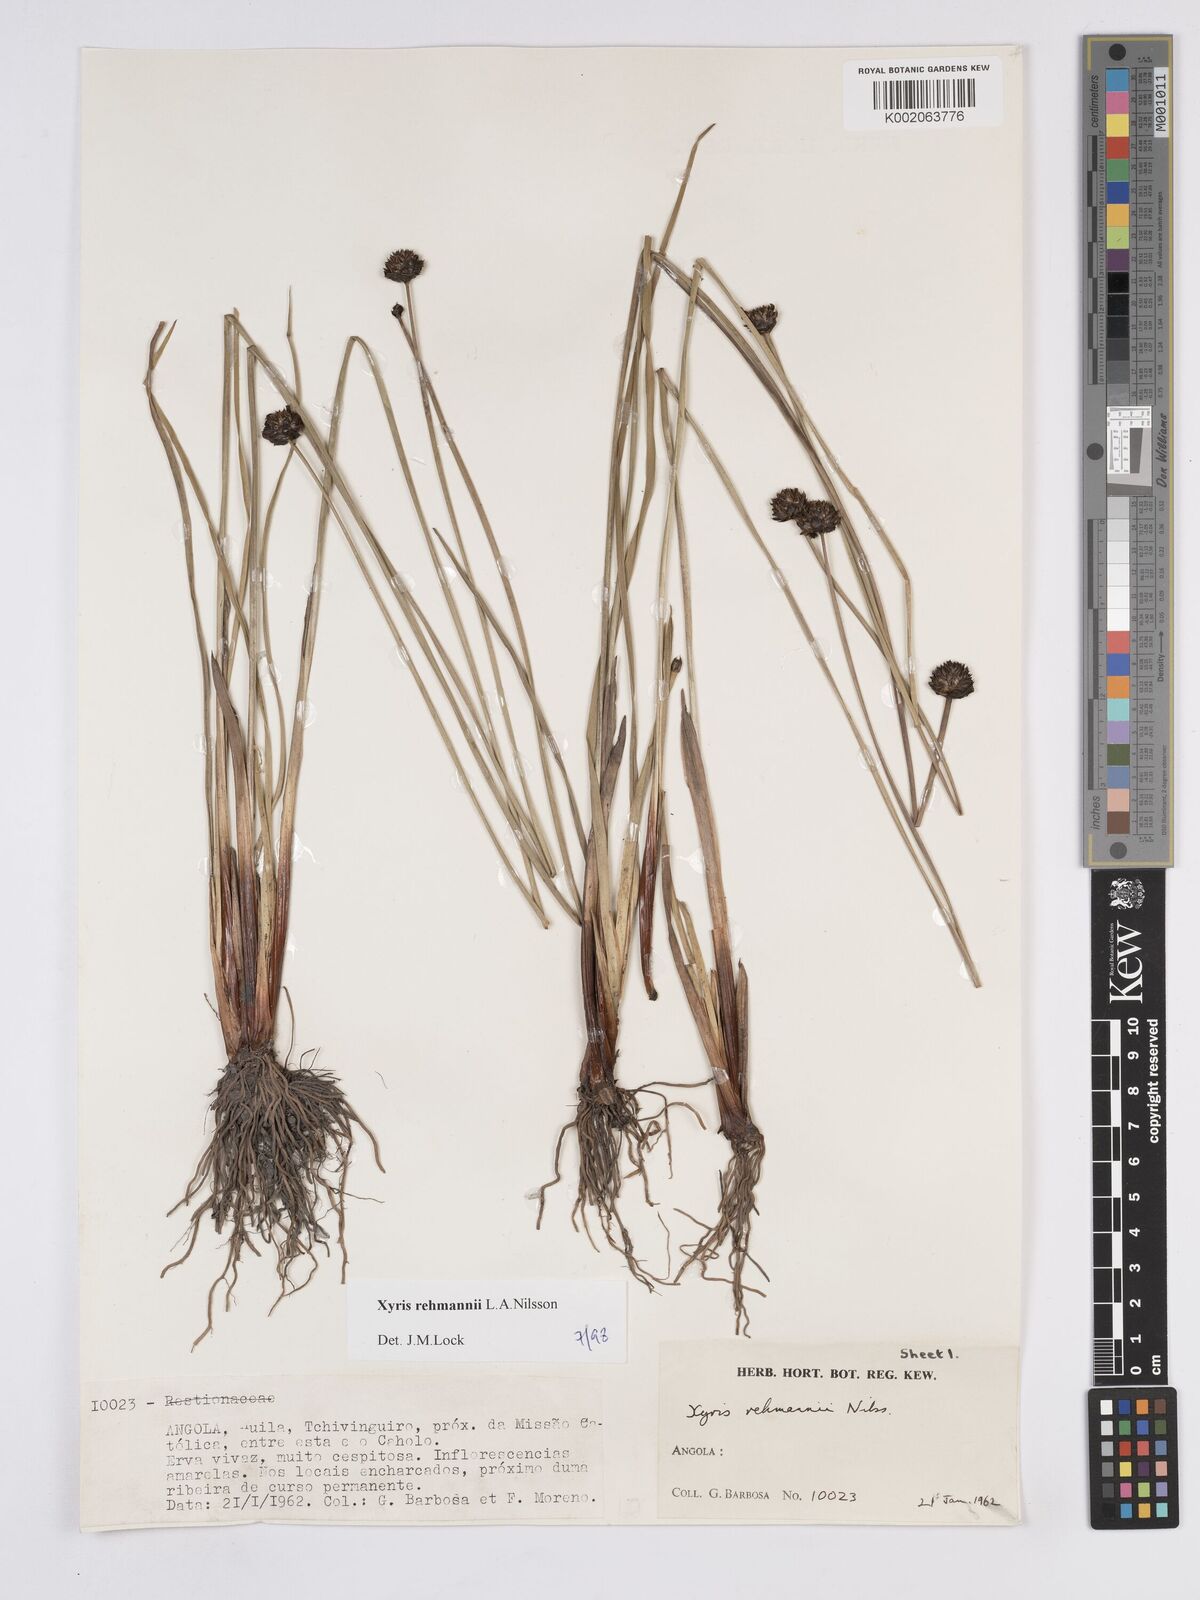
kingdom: Plantae
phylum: Tracheophyta
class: Liliopsida
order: Poales
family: Xyridaceae
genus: Xyris
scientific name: Xyris rehmannii
